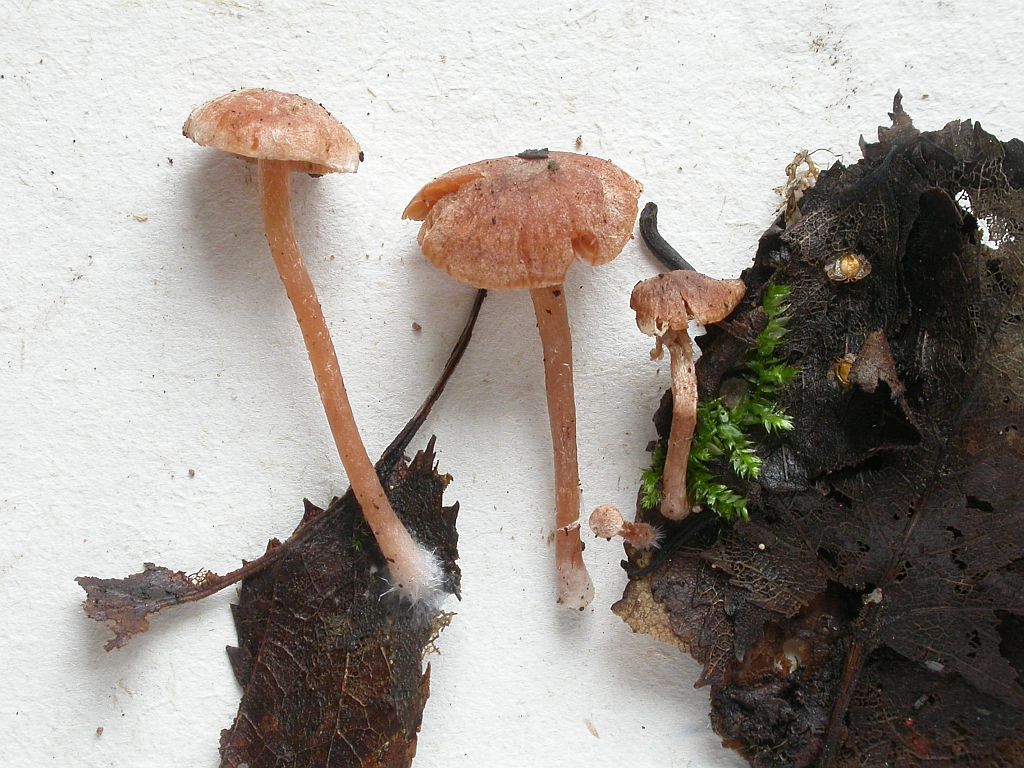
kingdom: Fungi
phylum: Basidiomycota
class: Agaricomycetes
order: Agaricales
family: Tubariaceae
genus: Tubaria
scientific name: Tubaria conspersa
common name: bleg fnughat
